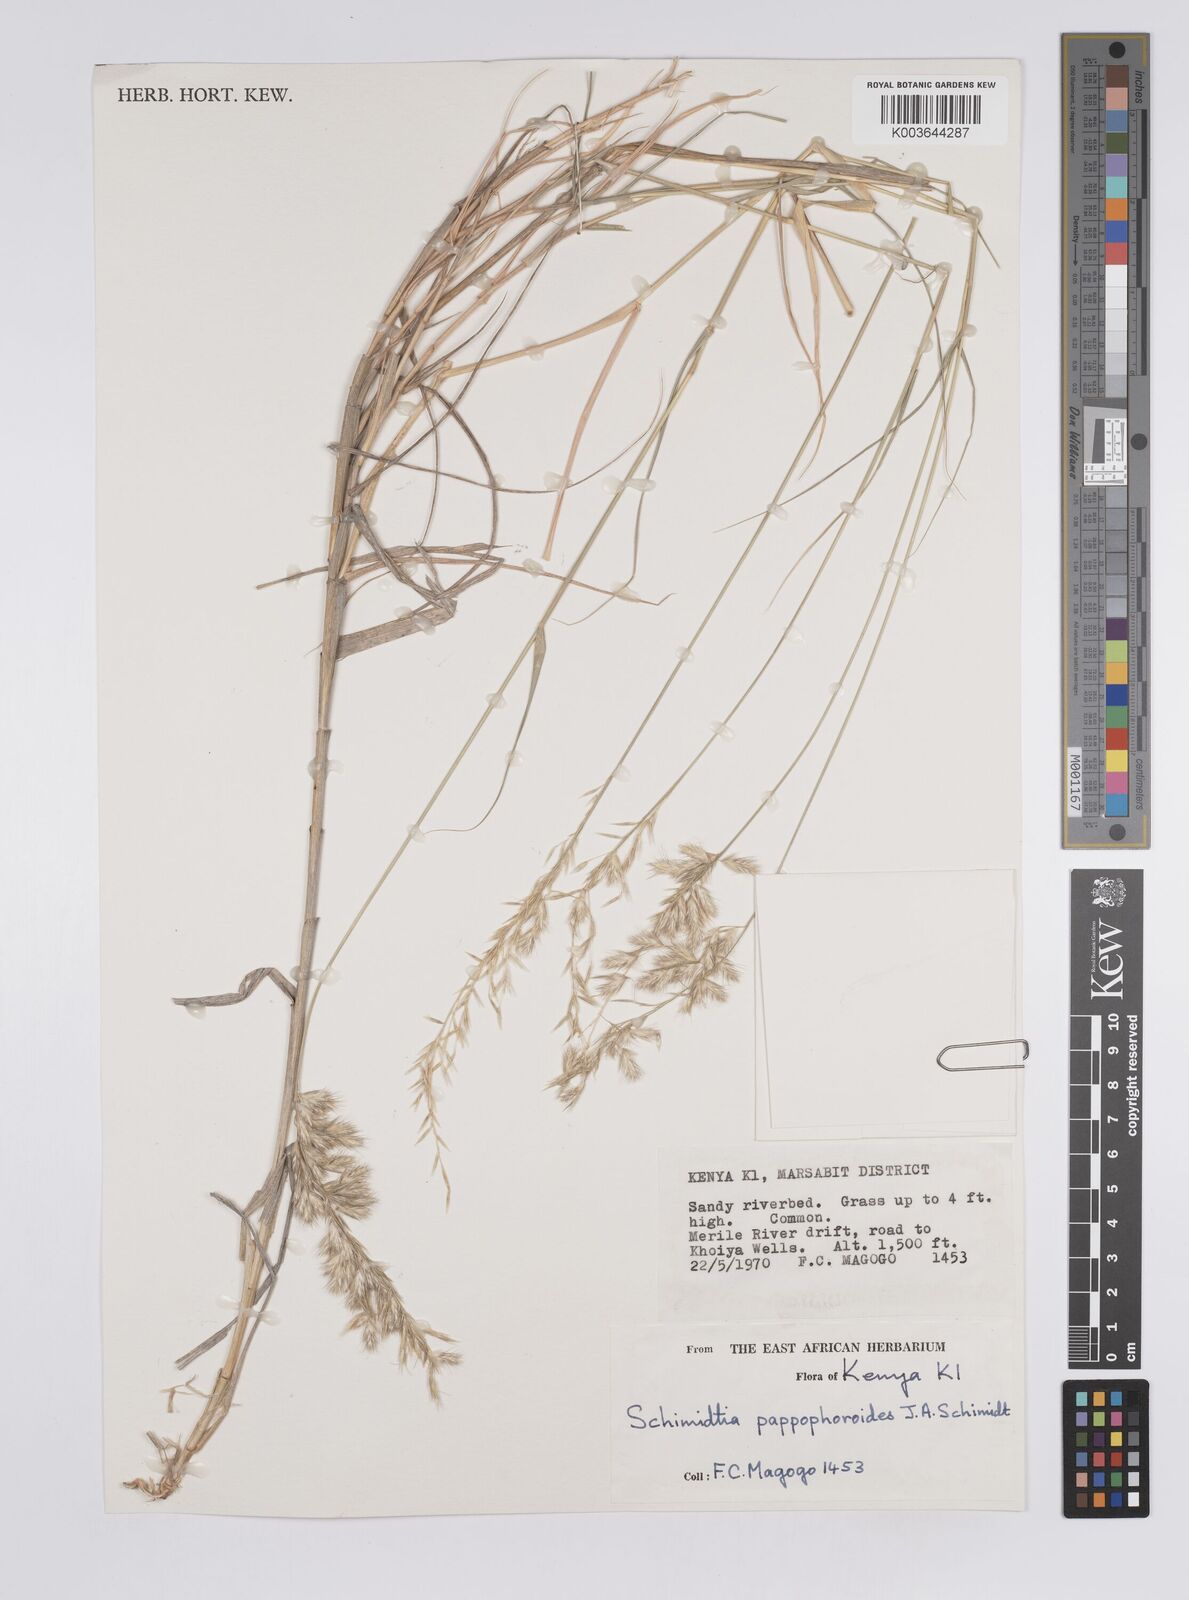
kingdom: Plantae
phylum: Tracheophyta
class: Liliopsida
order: Poales
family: Poaceae
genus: Schmidtia
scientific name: Schmidtia pappophoroides
